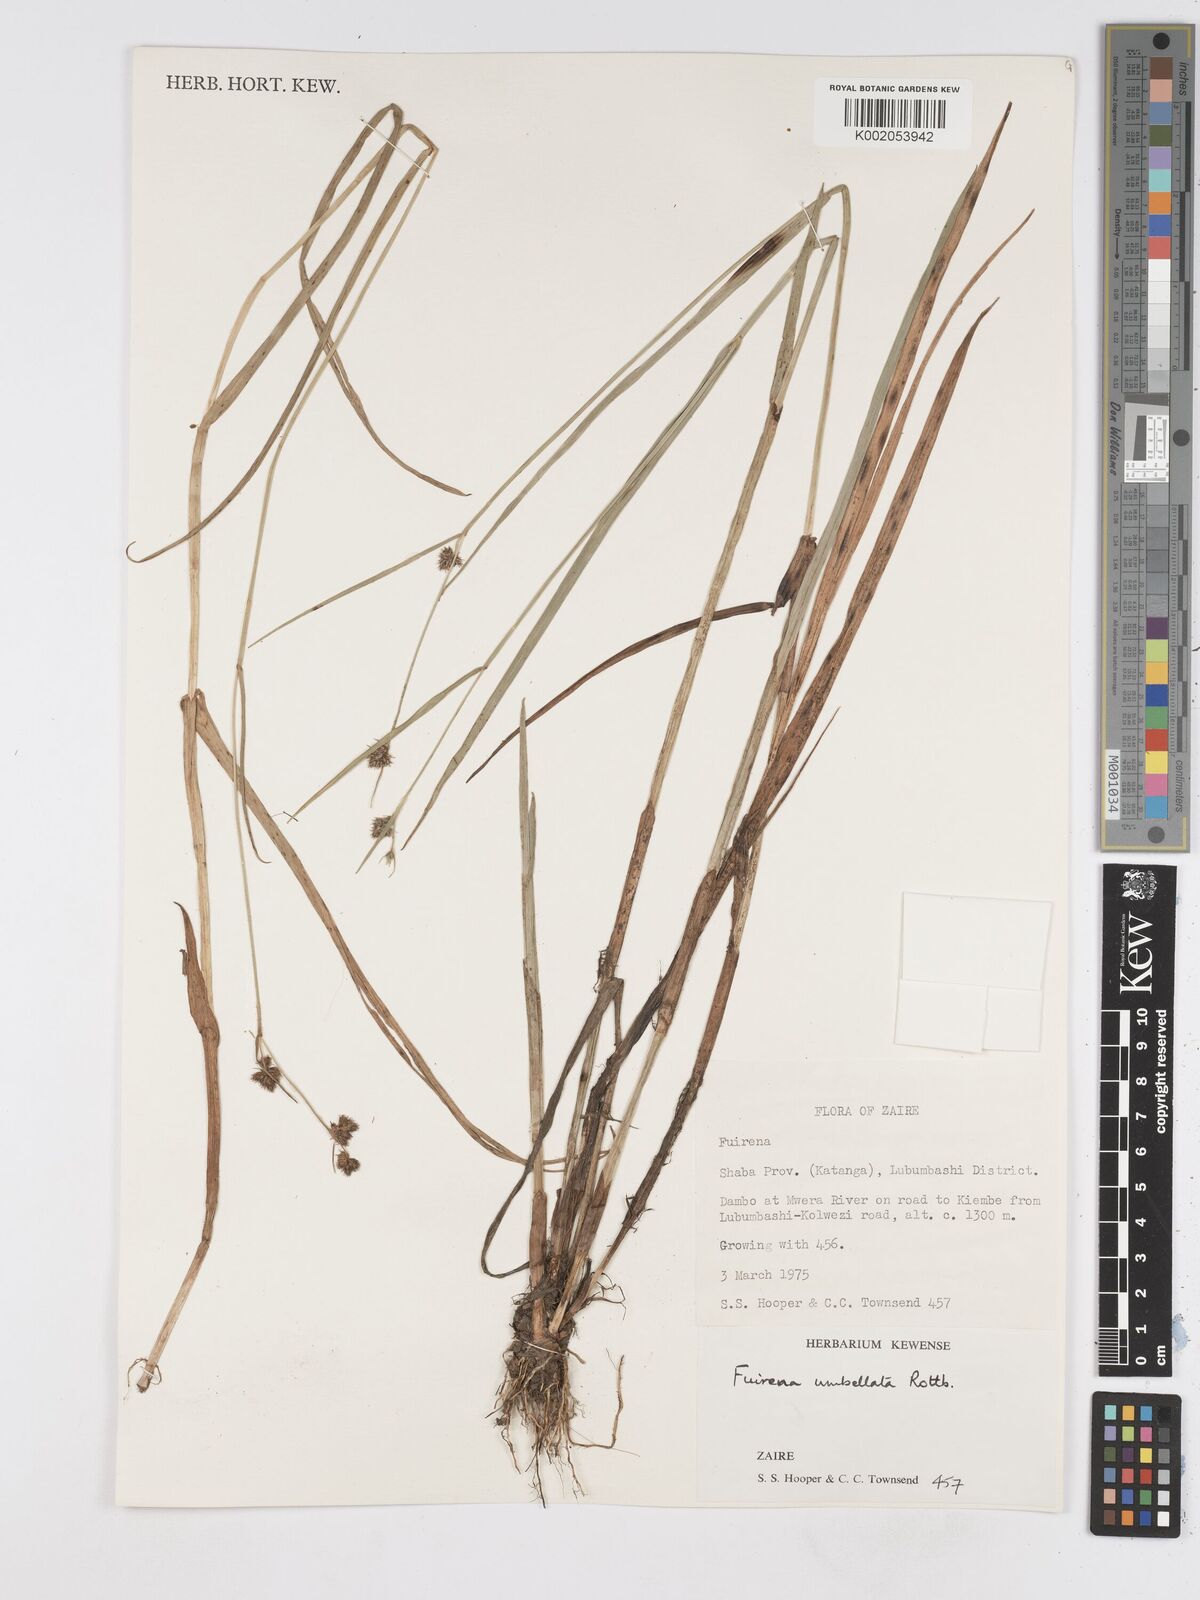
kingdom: Plantae
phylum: Tracheophyta
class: Liliopsida
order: Poales
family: Cyperaceae
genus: Fuirena
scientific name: Fuirena umbellata
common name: Yefen
